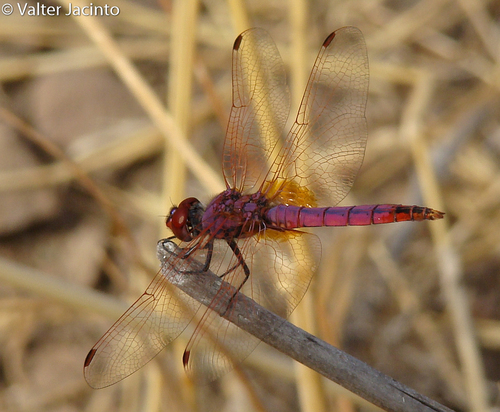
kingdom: Animalia
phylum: Arthropoda
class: Insecta
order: Odonata
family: Libellulidae
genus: Trithemis
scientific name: Trithemis annulata
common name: Violet dropwing
